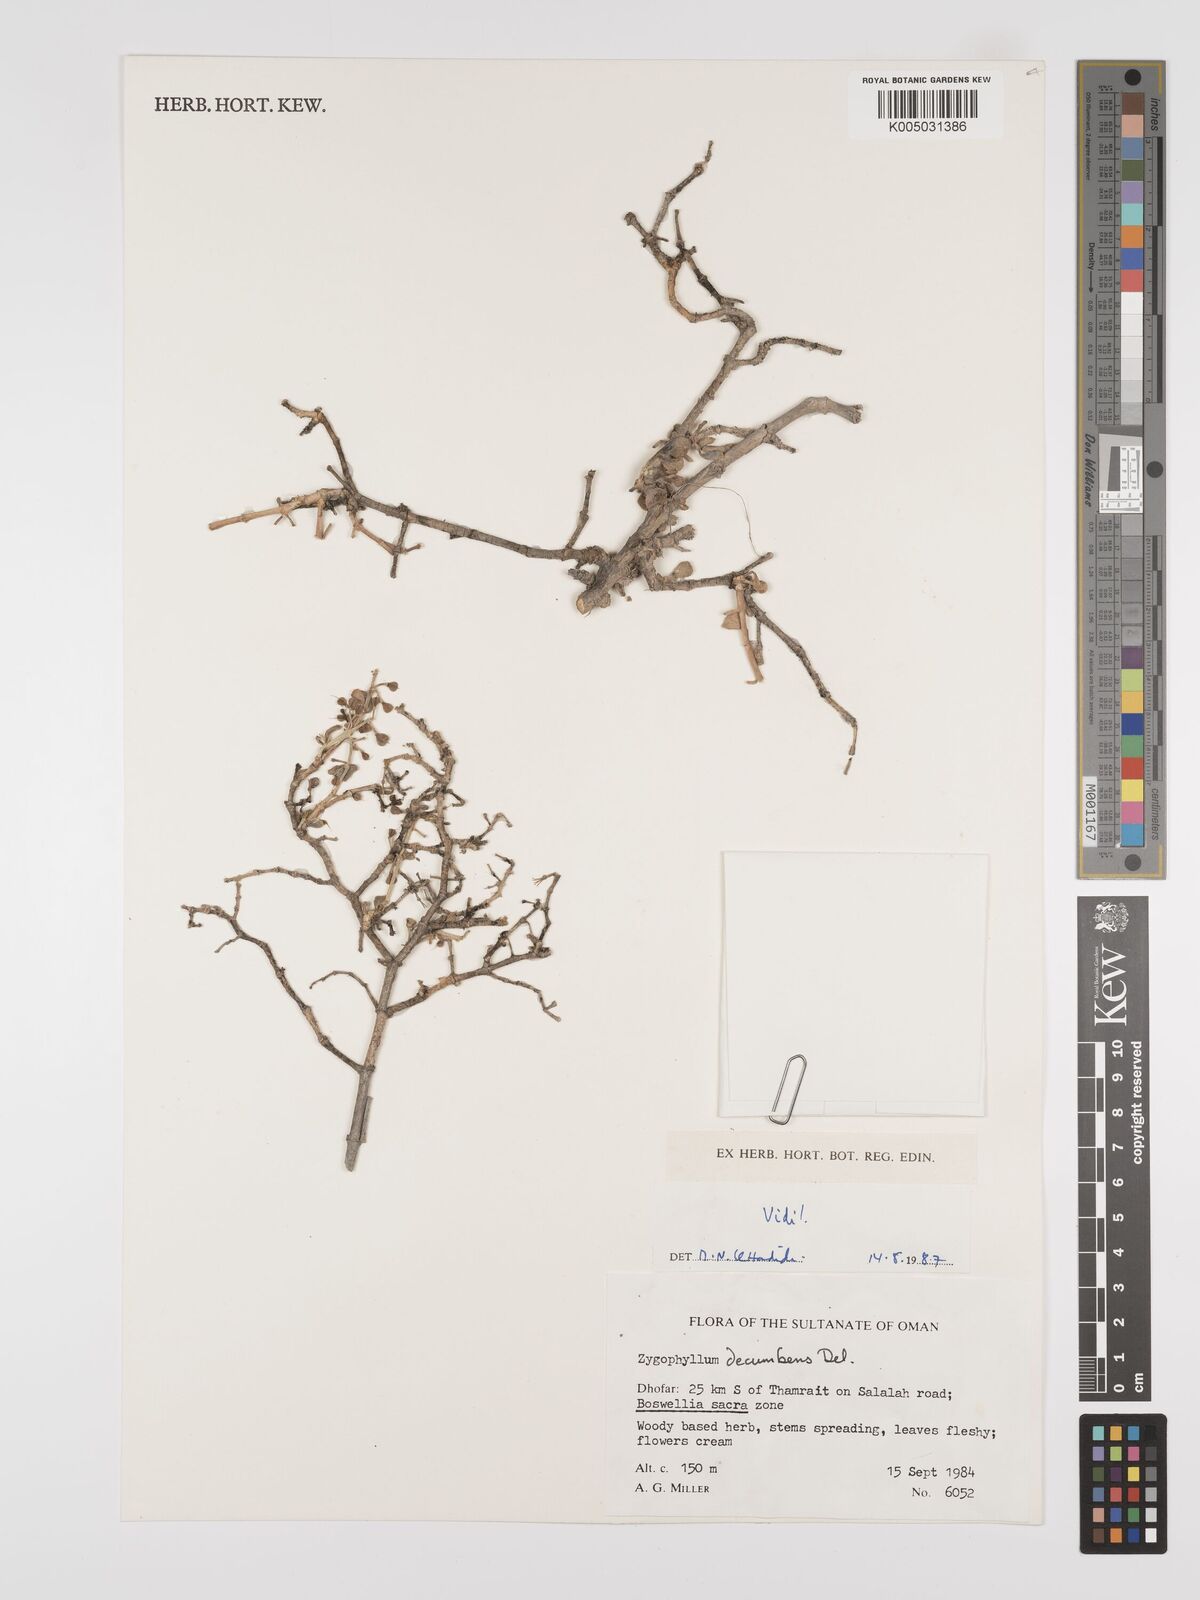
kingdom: Plantae
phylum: Tracheophyta
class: Magnoliopsida
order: Zygophyllales
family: Zygophyllaceae
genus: Tetraena
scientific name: Tetraena decumbens
